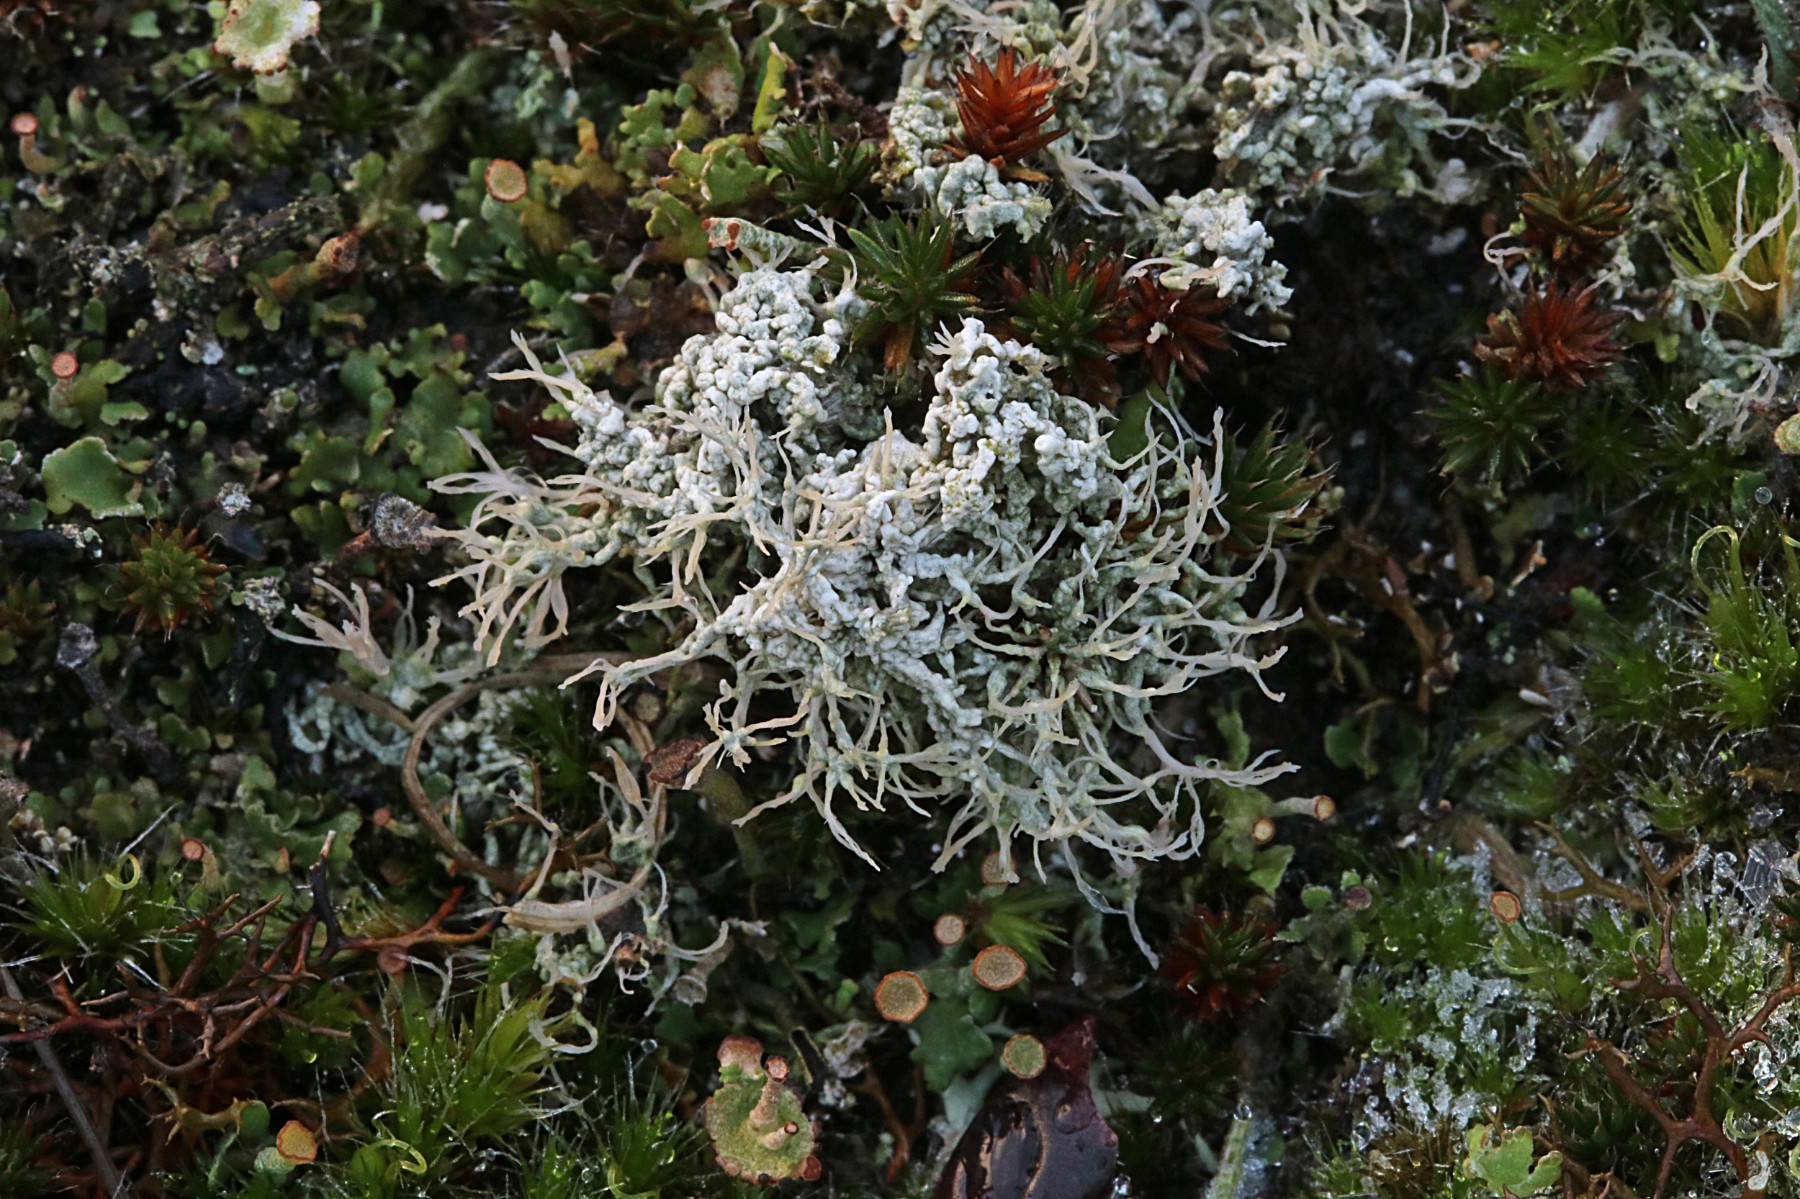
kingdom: Fungi
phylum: Ascomycota
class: Lecanoromycetes
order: Pertusariales
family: Ochrolechiaceae
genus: Ochrolechia
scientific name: Ochrolechia frigida
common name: fjeld-blegskivelav
